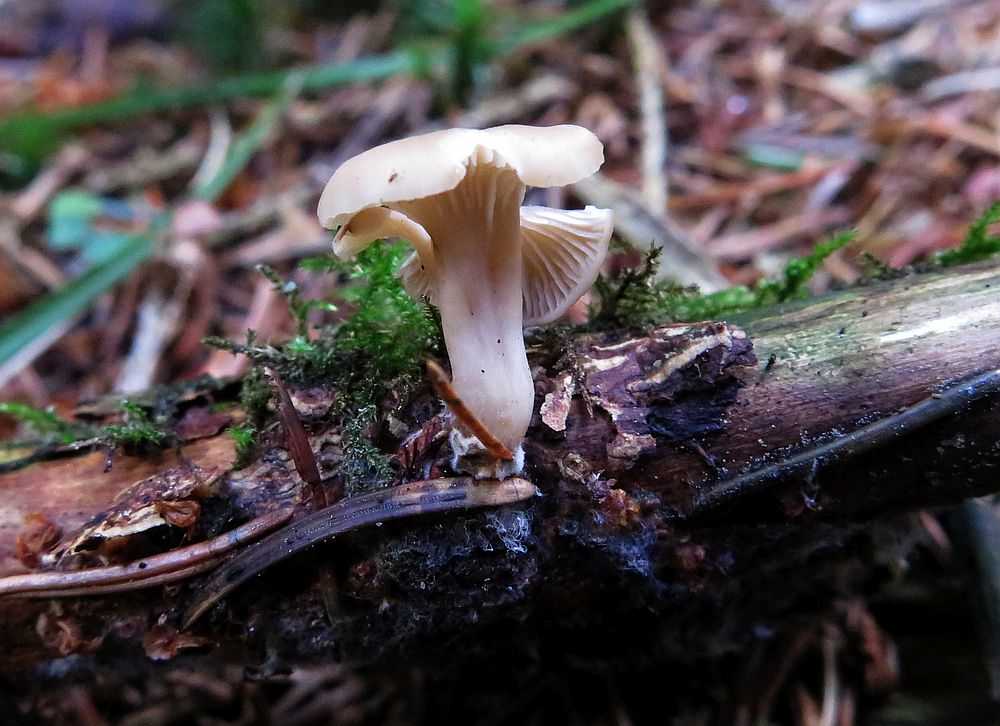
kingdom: Fungi
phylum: Basidiomycota
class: Agaricomycetes
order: Russulales
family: Auriscalpiaceae
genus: Lentinellus
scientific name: Lentinellus flabelliformis
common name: navle-savbladhat
